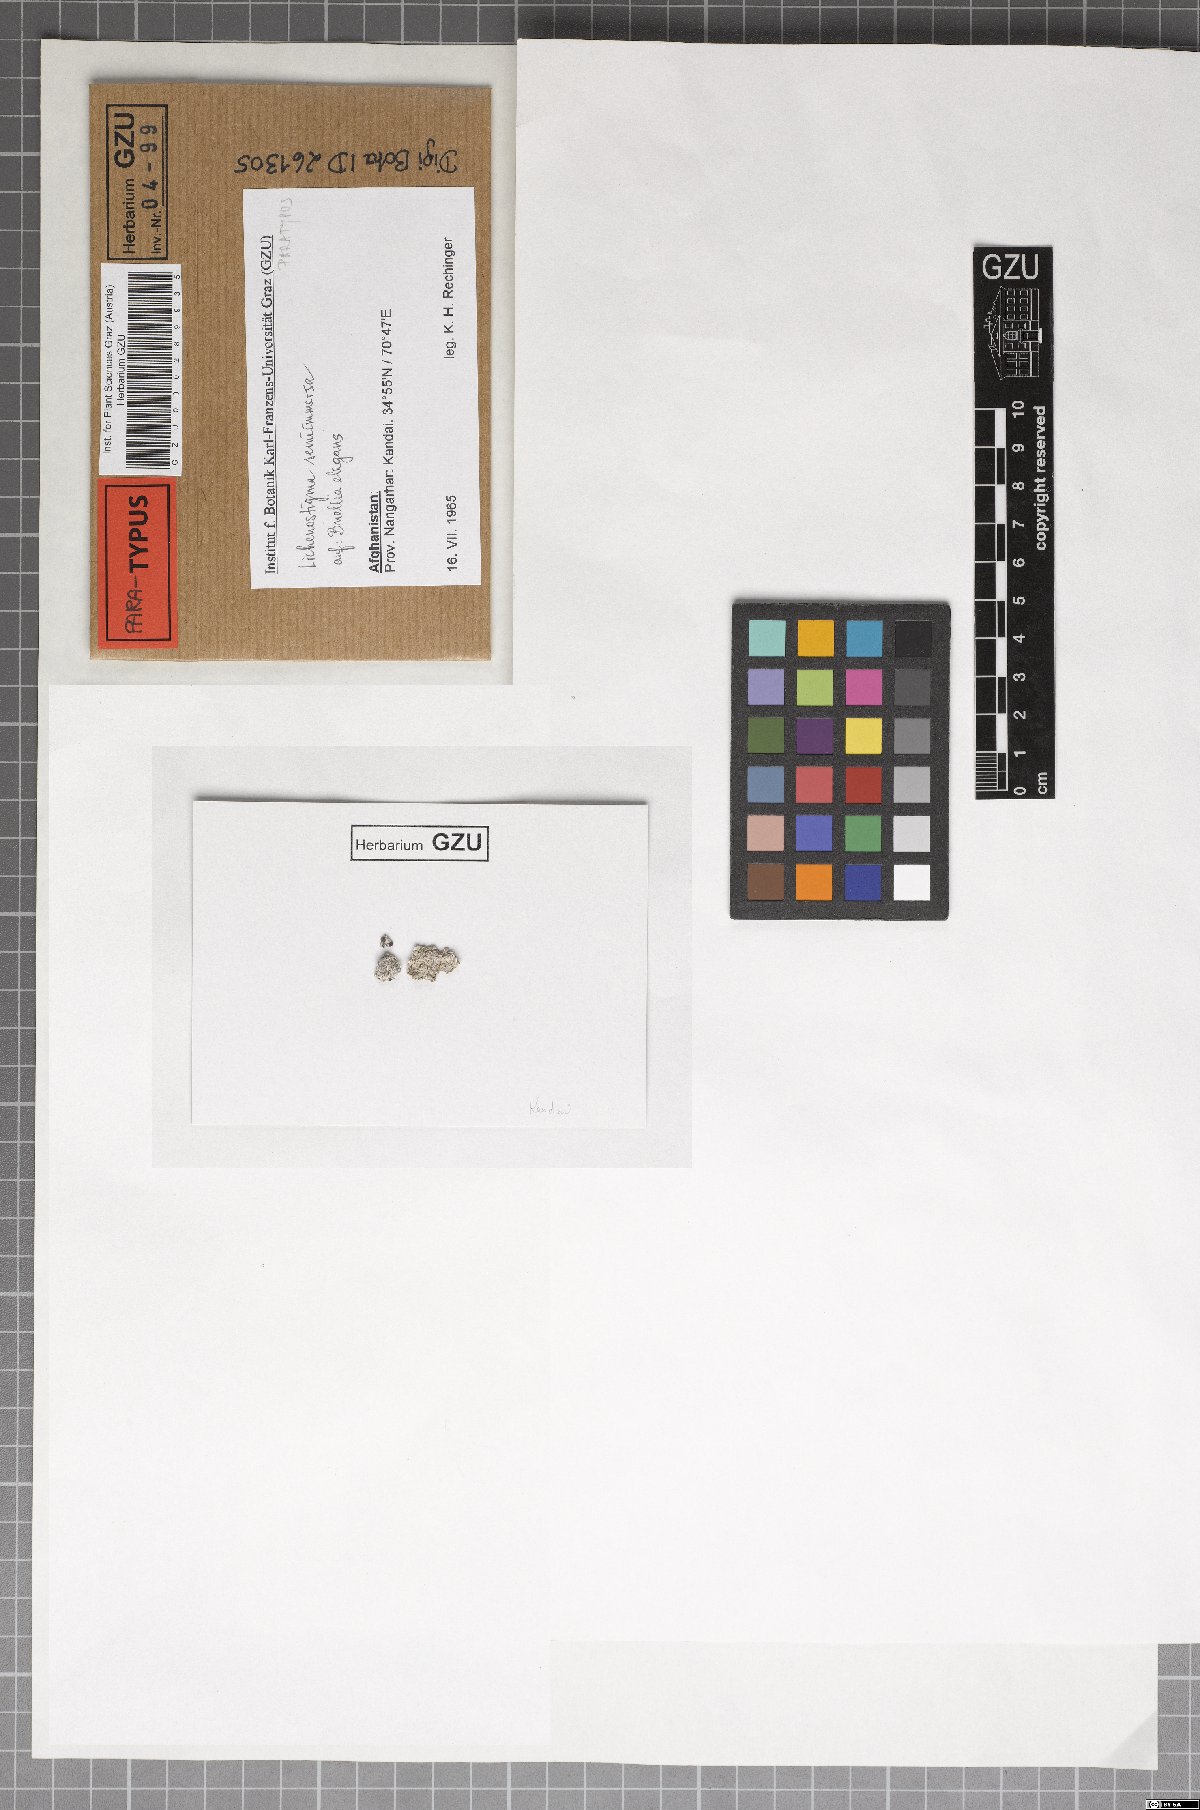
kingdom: Fungi
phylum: Ascomycota
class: Dothideomycetes
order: Lichenotheliales
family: Lichenotheliaceae
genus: Lichenostigma
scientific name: Lichenostigma semi-immersum
